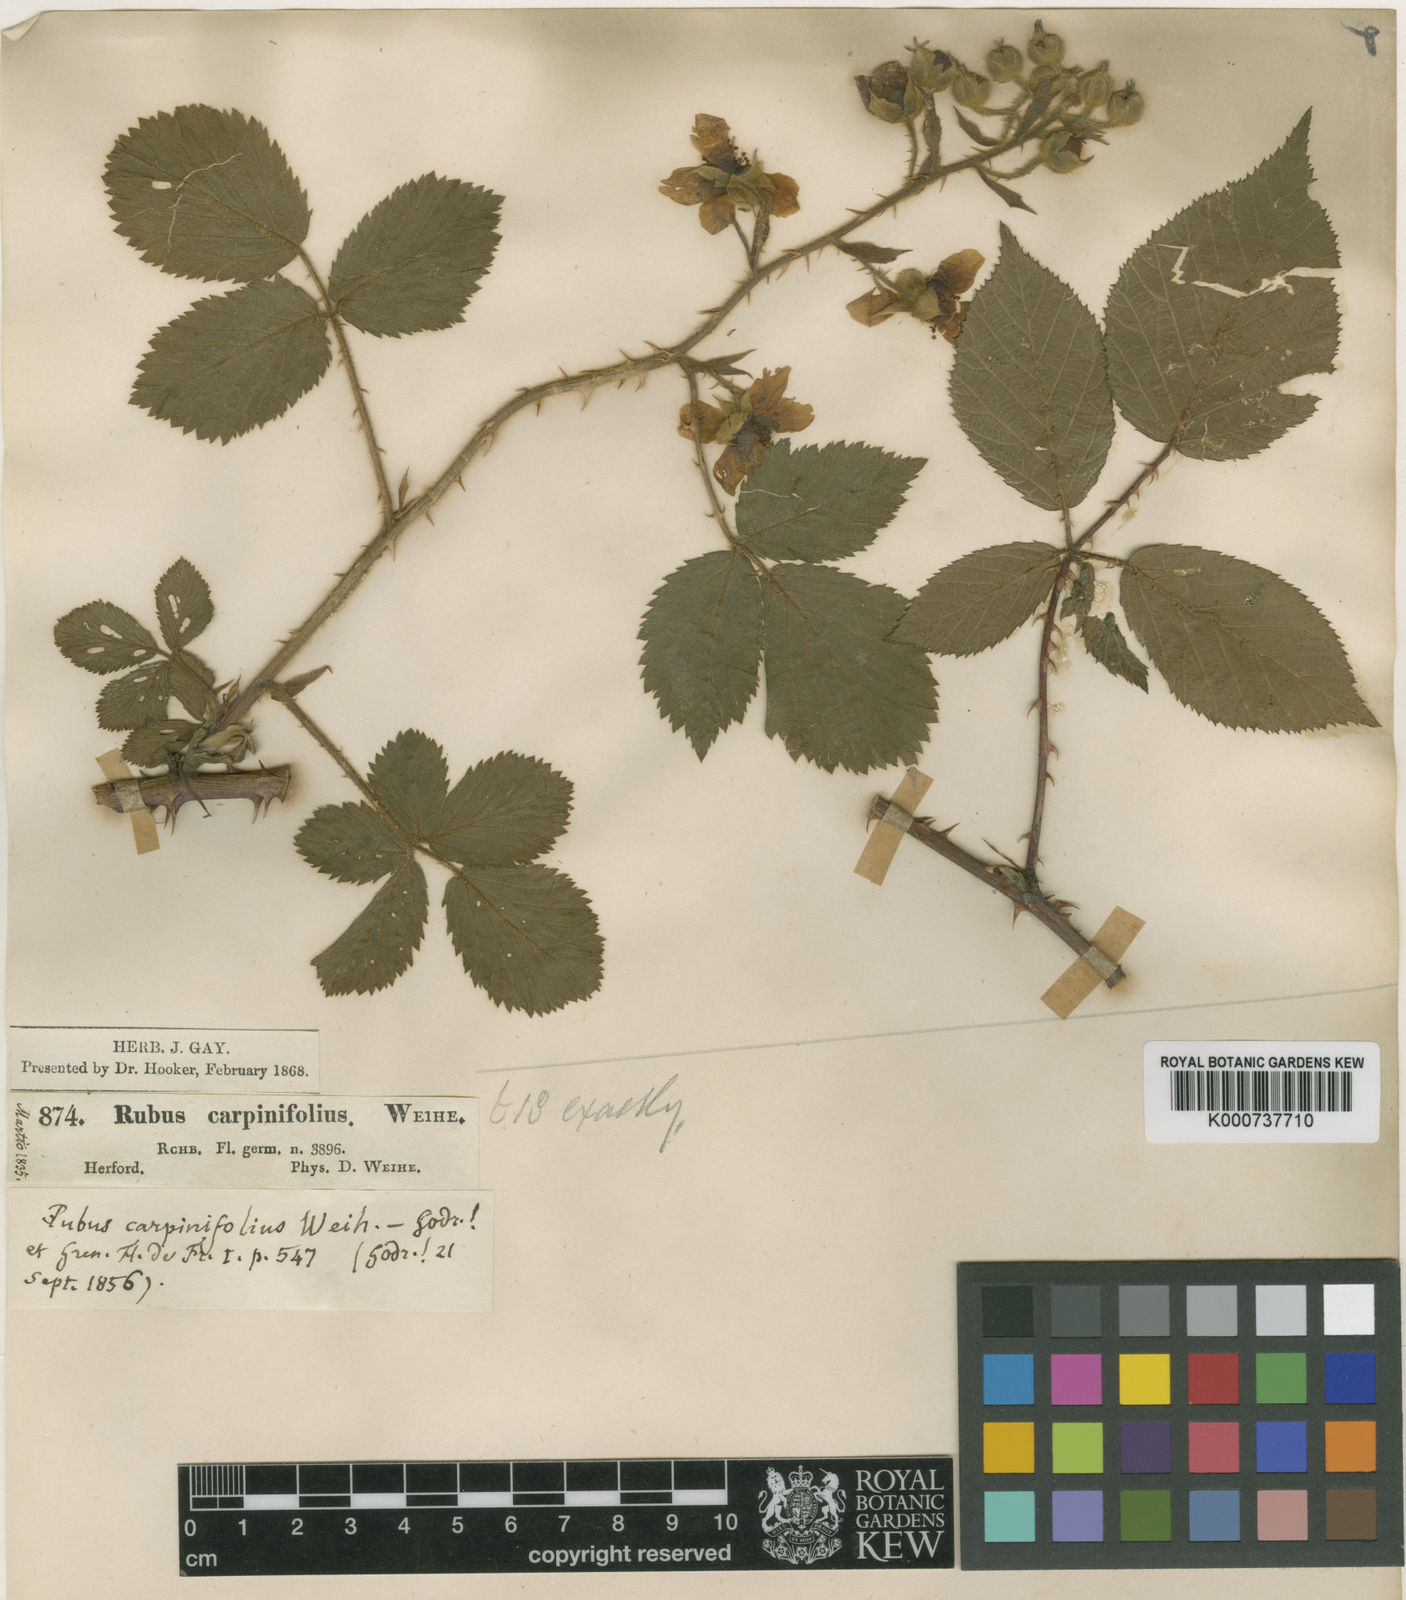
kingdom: Plantae
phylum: Tracheophyta
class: Magnoliopsida
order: Rosales
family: Rosaceae
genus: Rubus
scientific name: Rubus adspersus
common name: Hornbeam-leaved bramble
